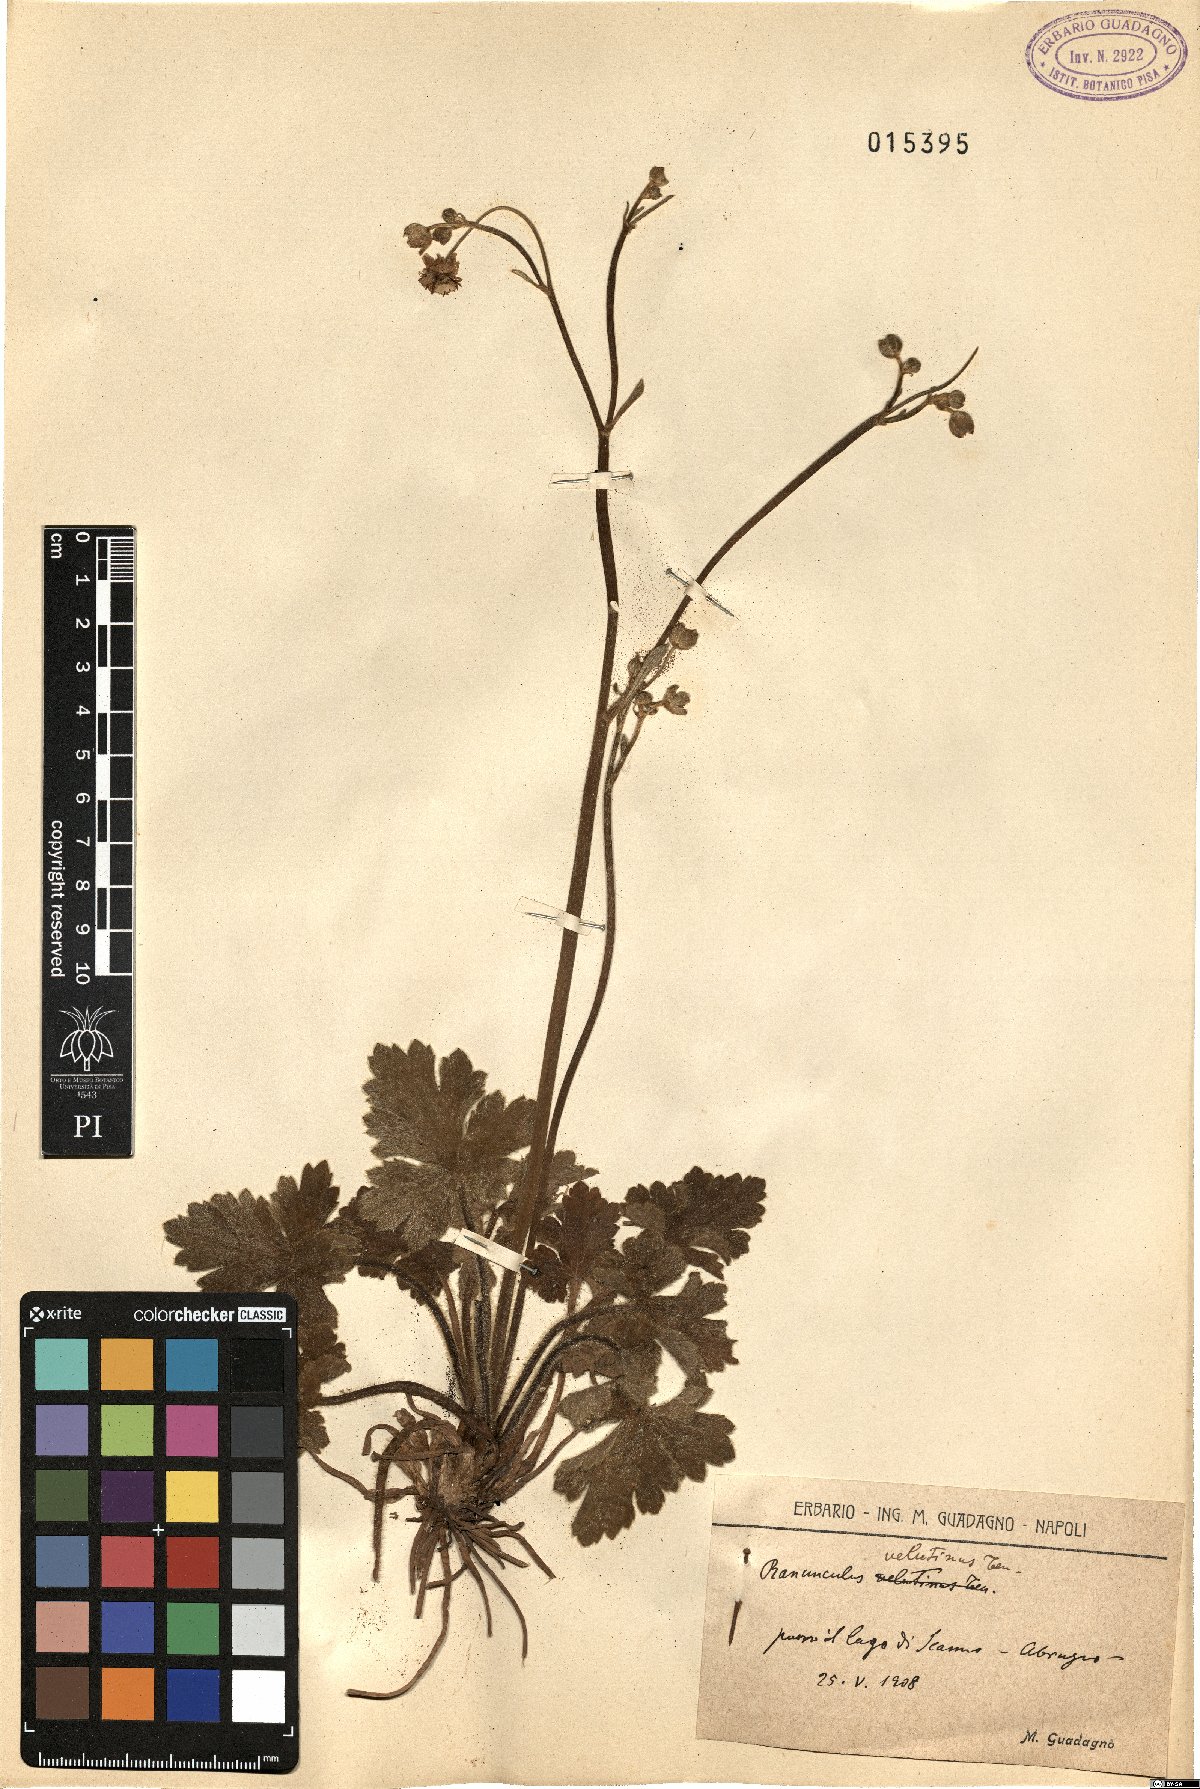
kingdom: Plantae
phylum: Tracheophyta
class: Magnoliopsida
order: Ranunculales
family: Ranunculaceae
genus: Ranunculus
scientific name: Ranunculus velutinus
